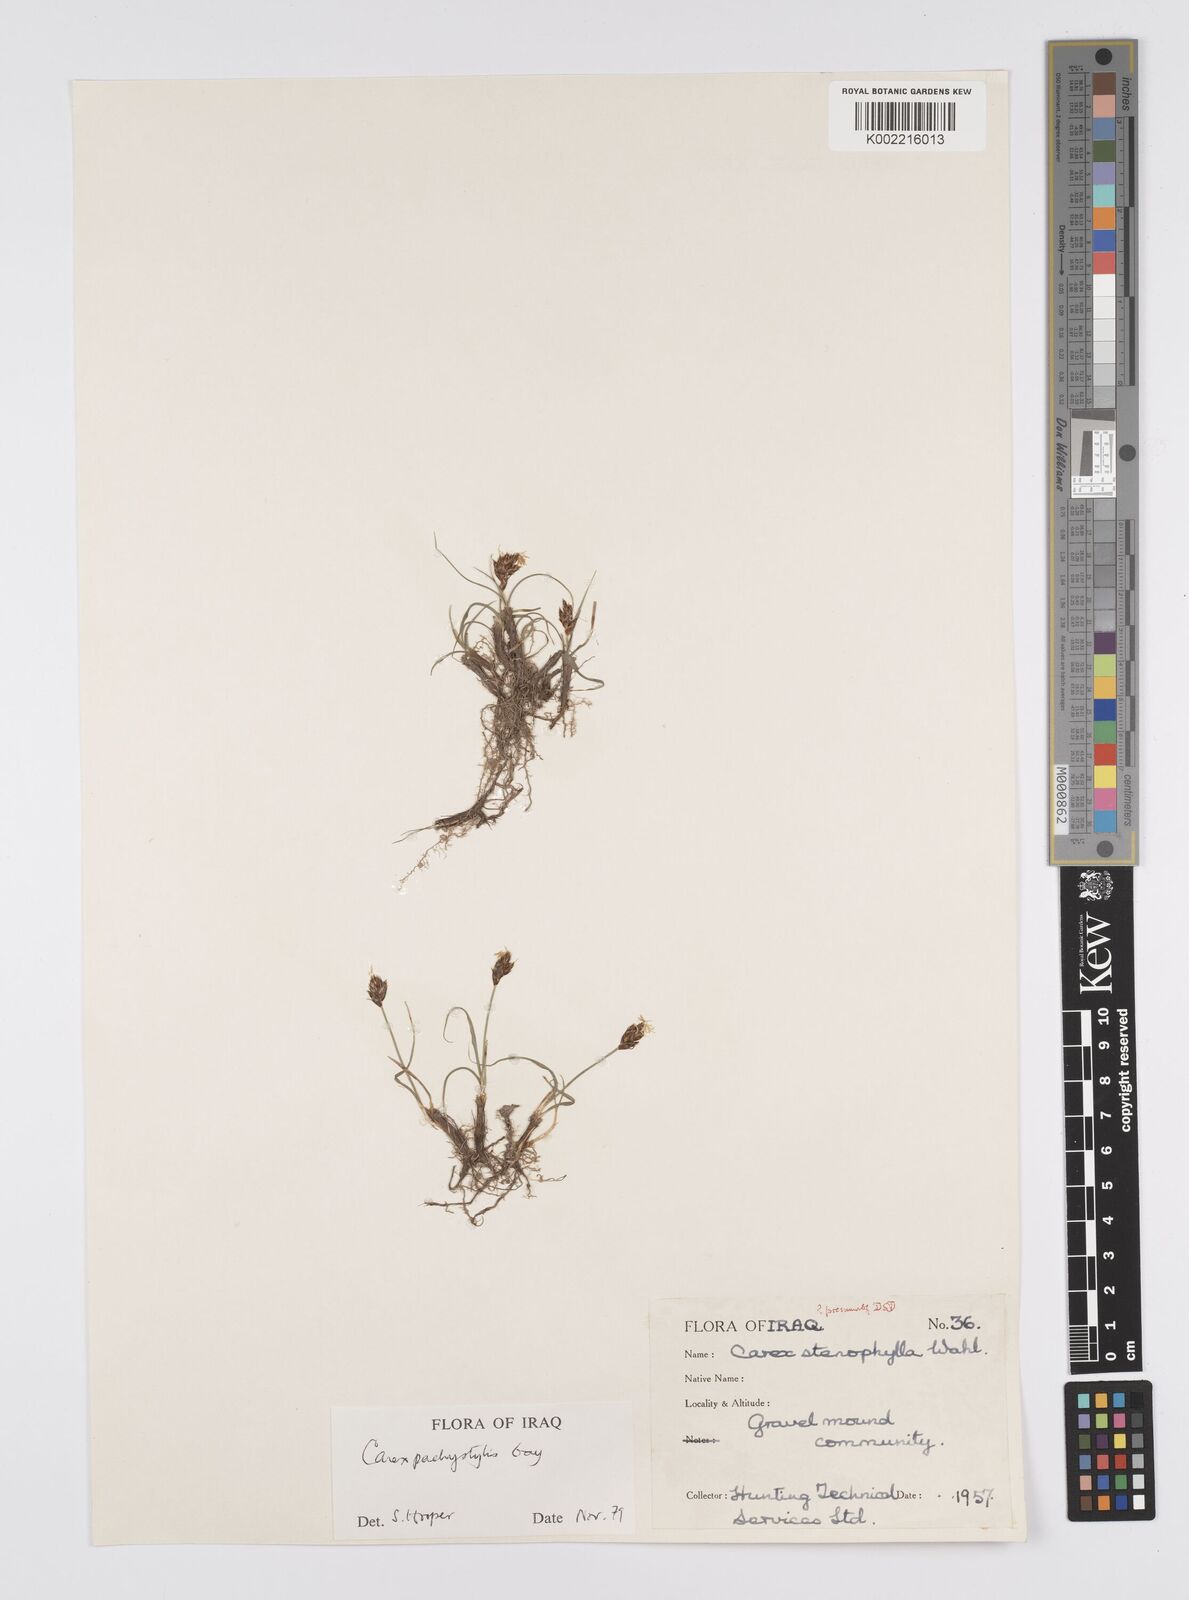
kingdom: Plantae
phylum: Tracheophyta
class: Liliopsida
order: Poales
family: Cyperaceae
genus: Carex
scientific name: Carex pachystylis
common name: Thick-stem sedge
